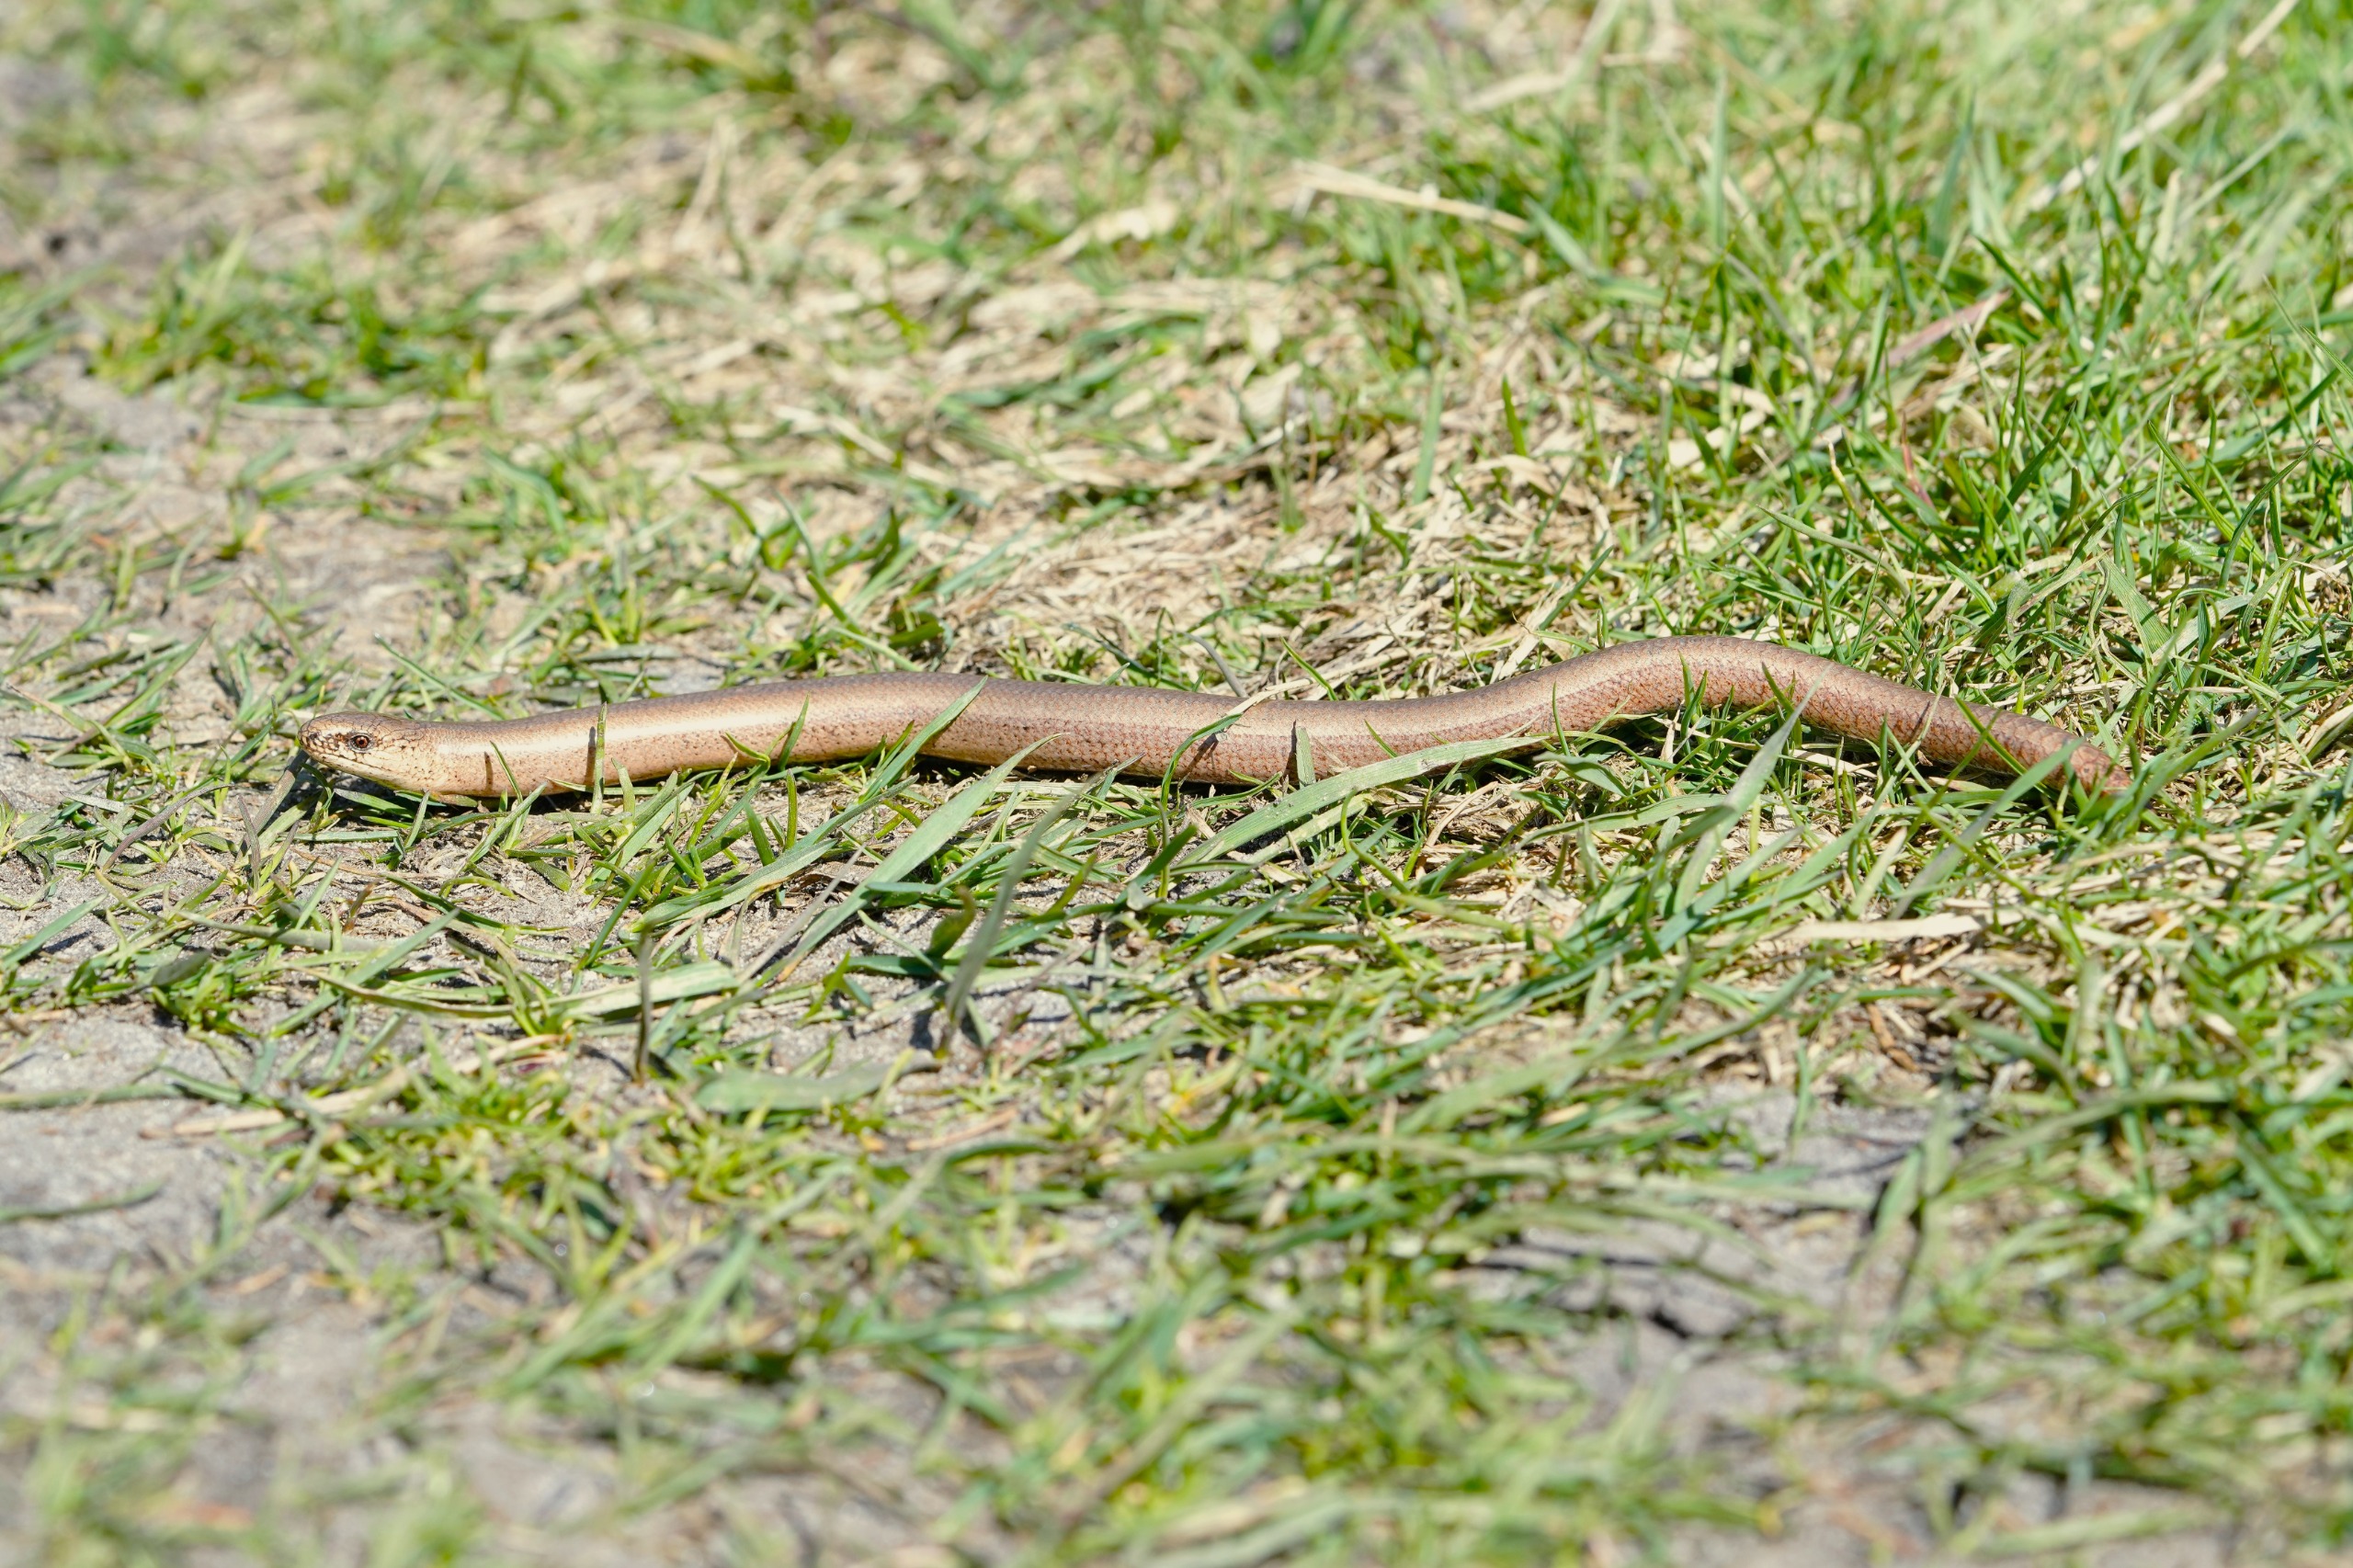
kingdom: Animalia
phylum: Chordata
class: Squamata
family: Anguidae
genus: Anguis
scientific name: Anguis fragilis
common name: Stålorm
